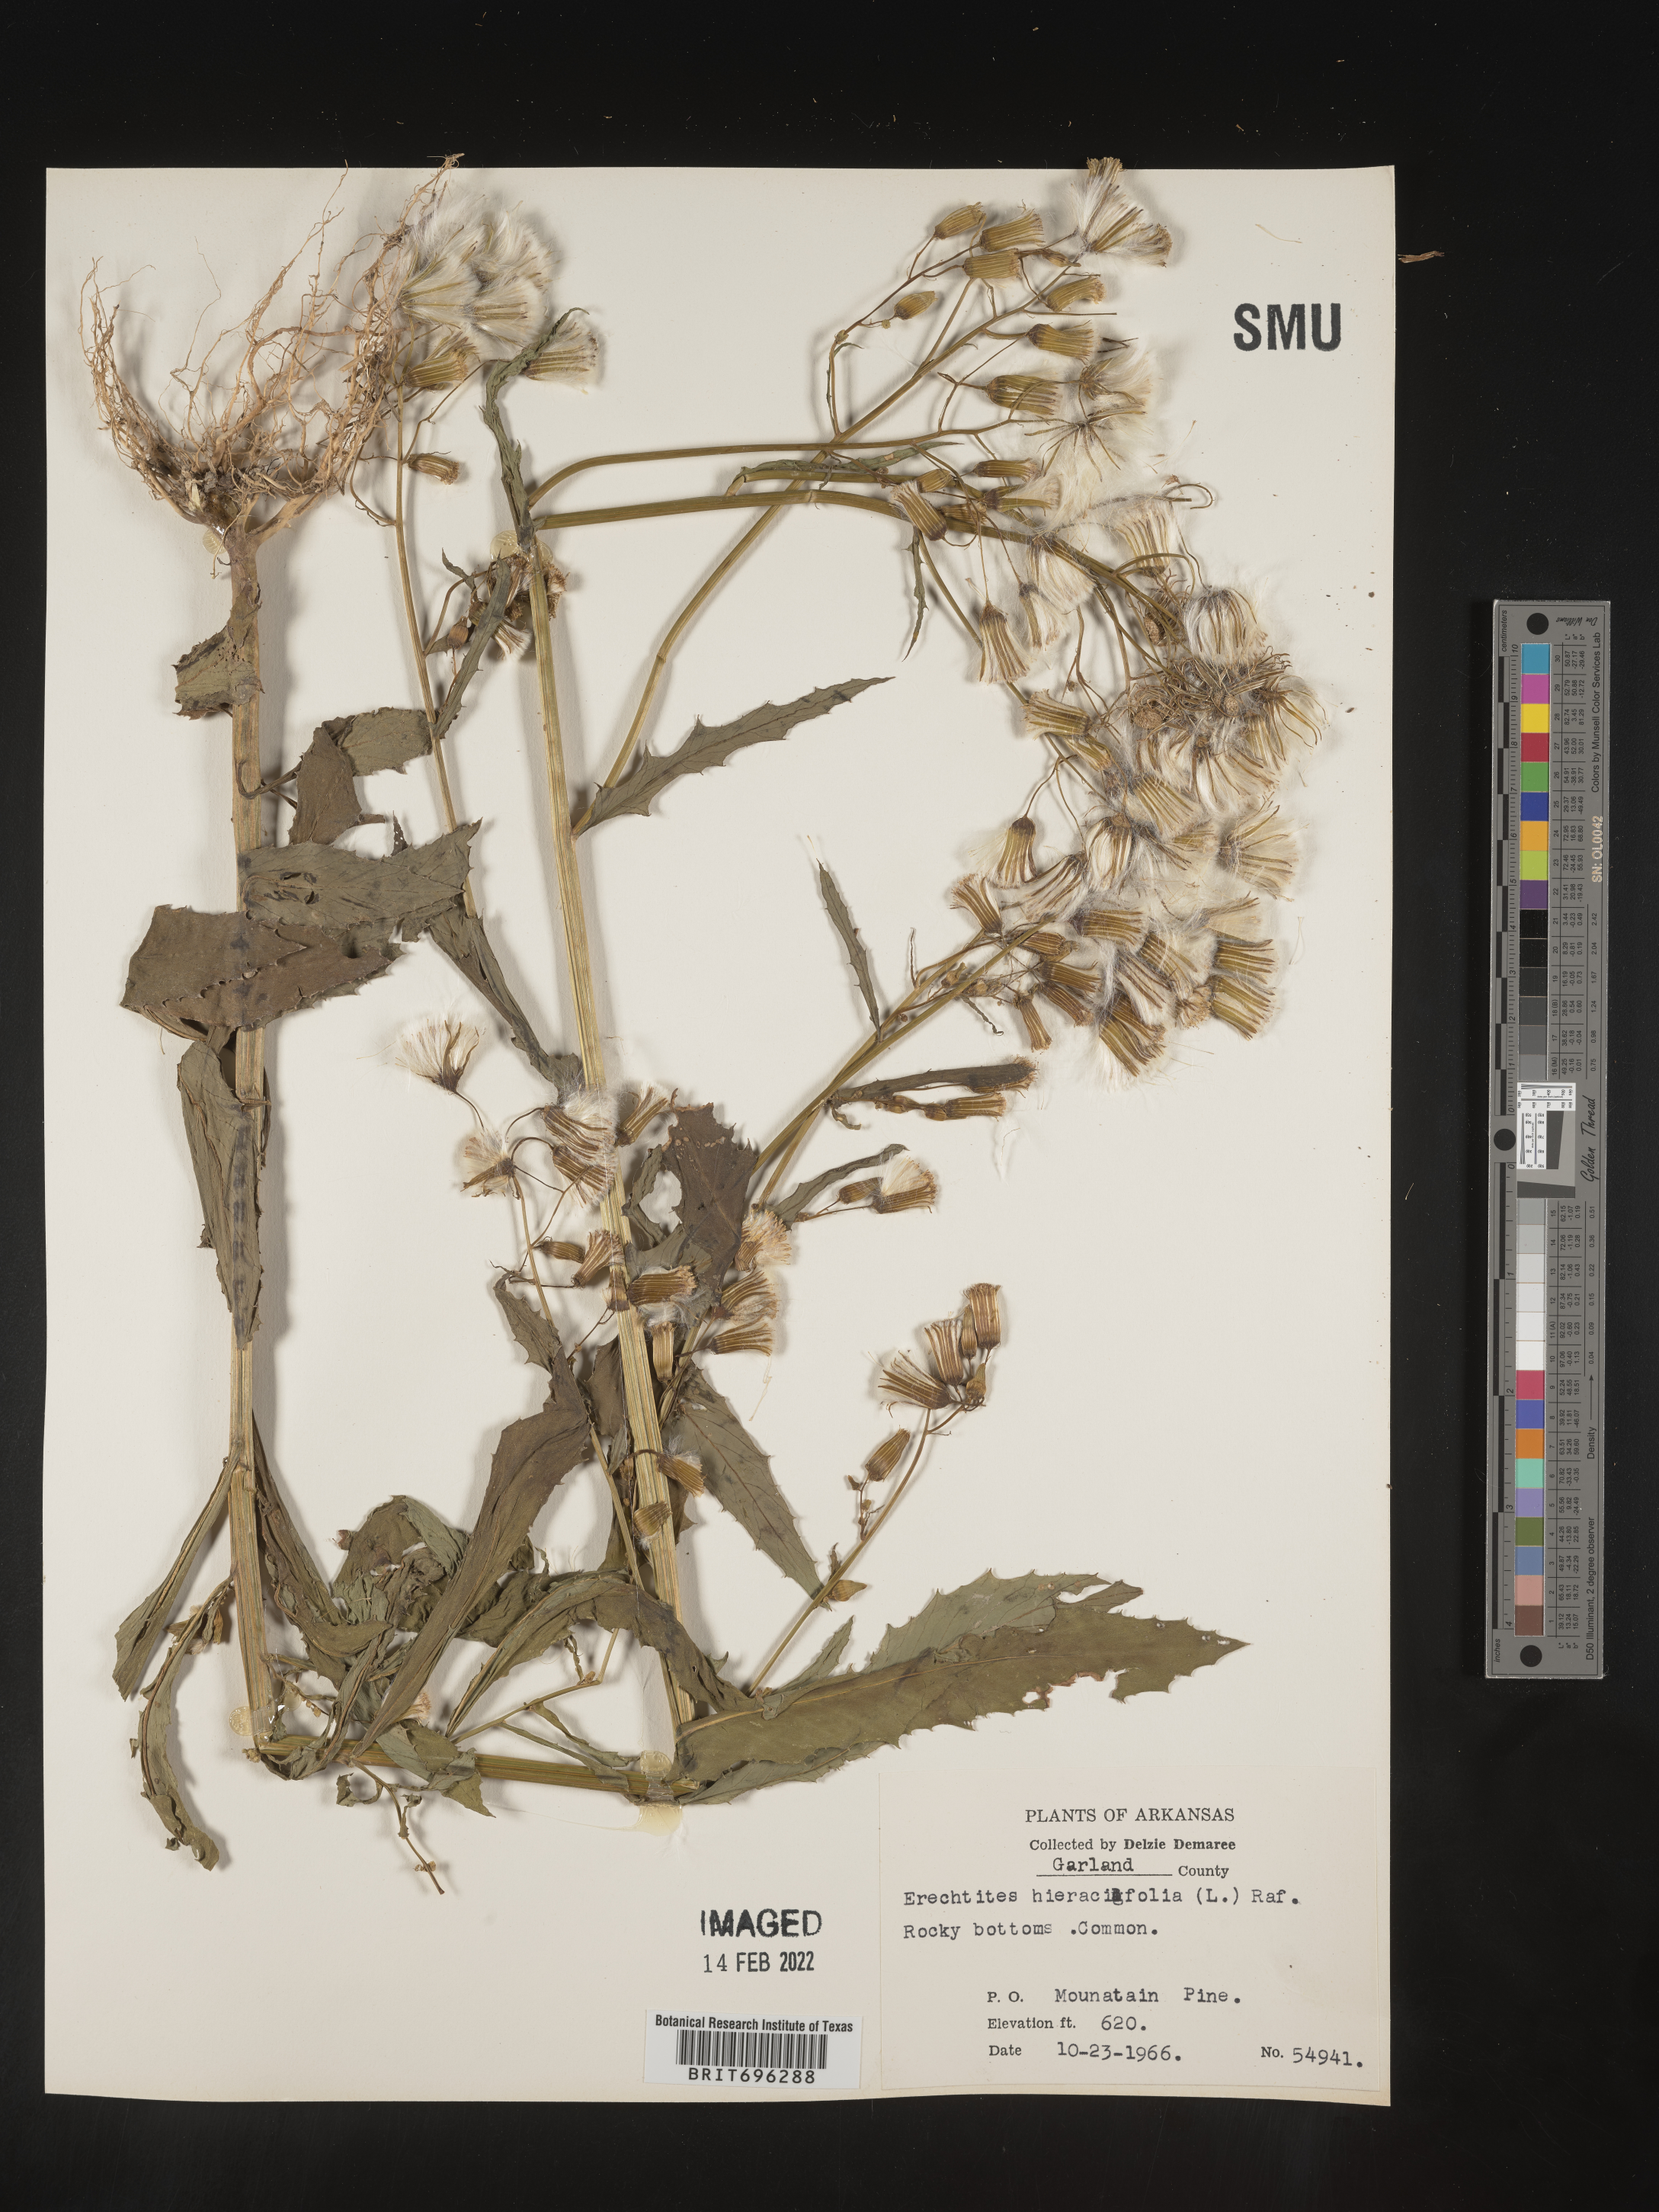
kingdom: Plantae
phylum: Tracheophyta
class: Magnoliopsida
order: Asterales
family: Asteraceae
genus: Erechtites
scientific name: Erechtites hieraciifolius
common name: American burnweed
